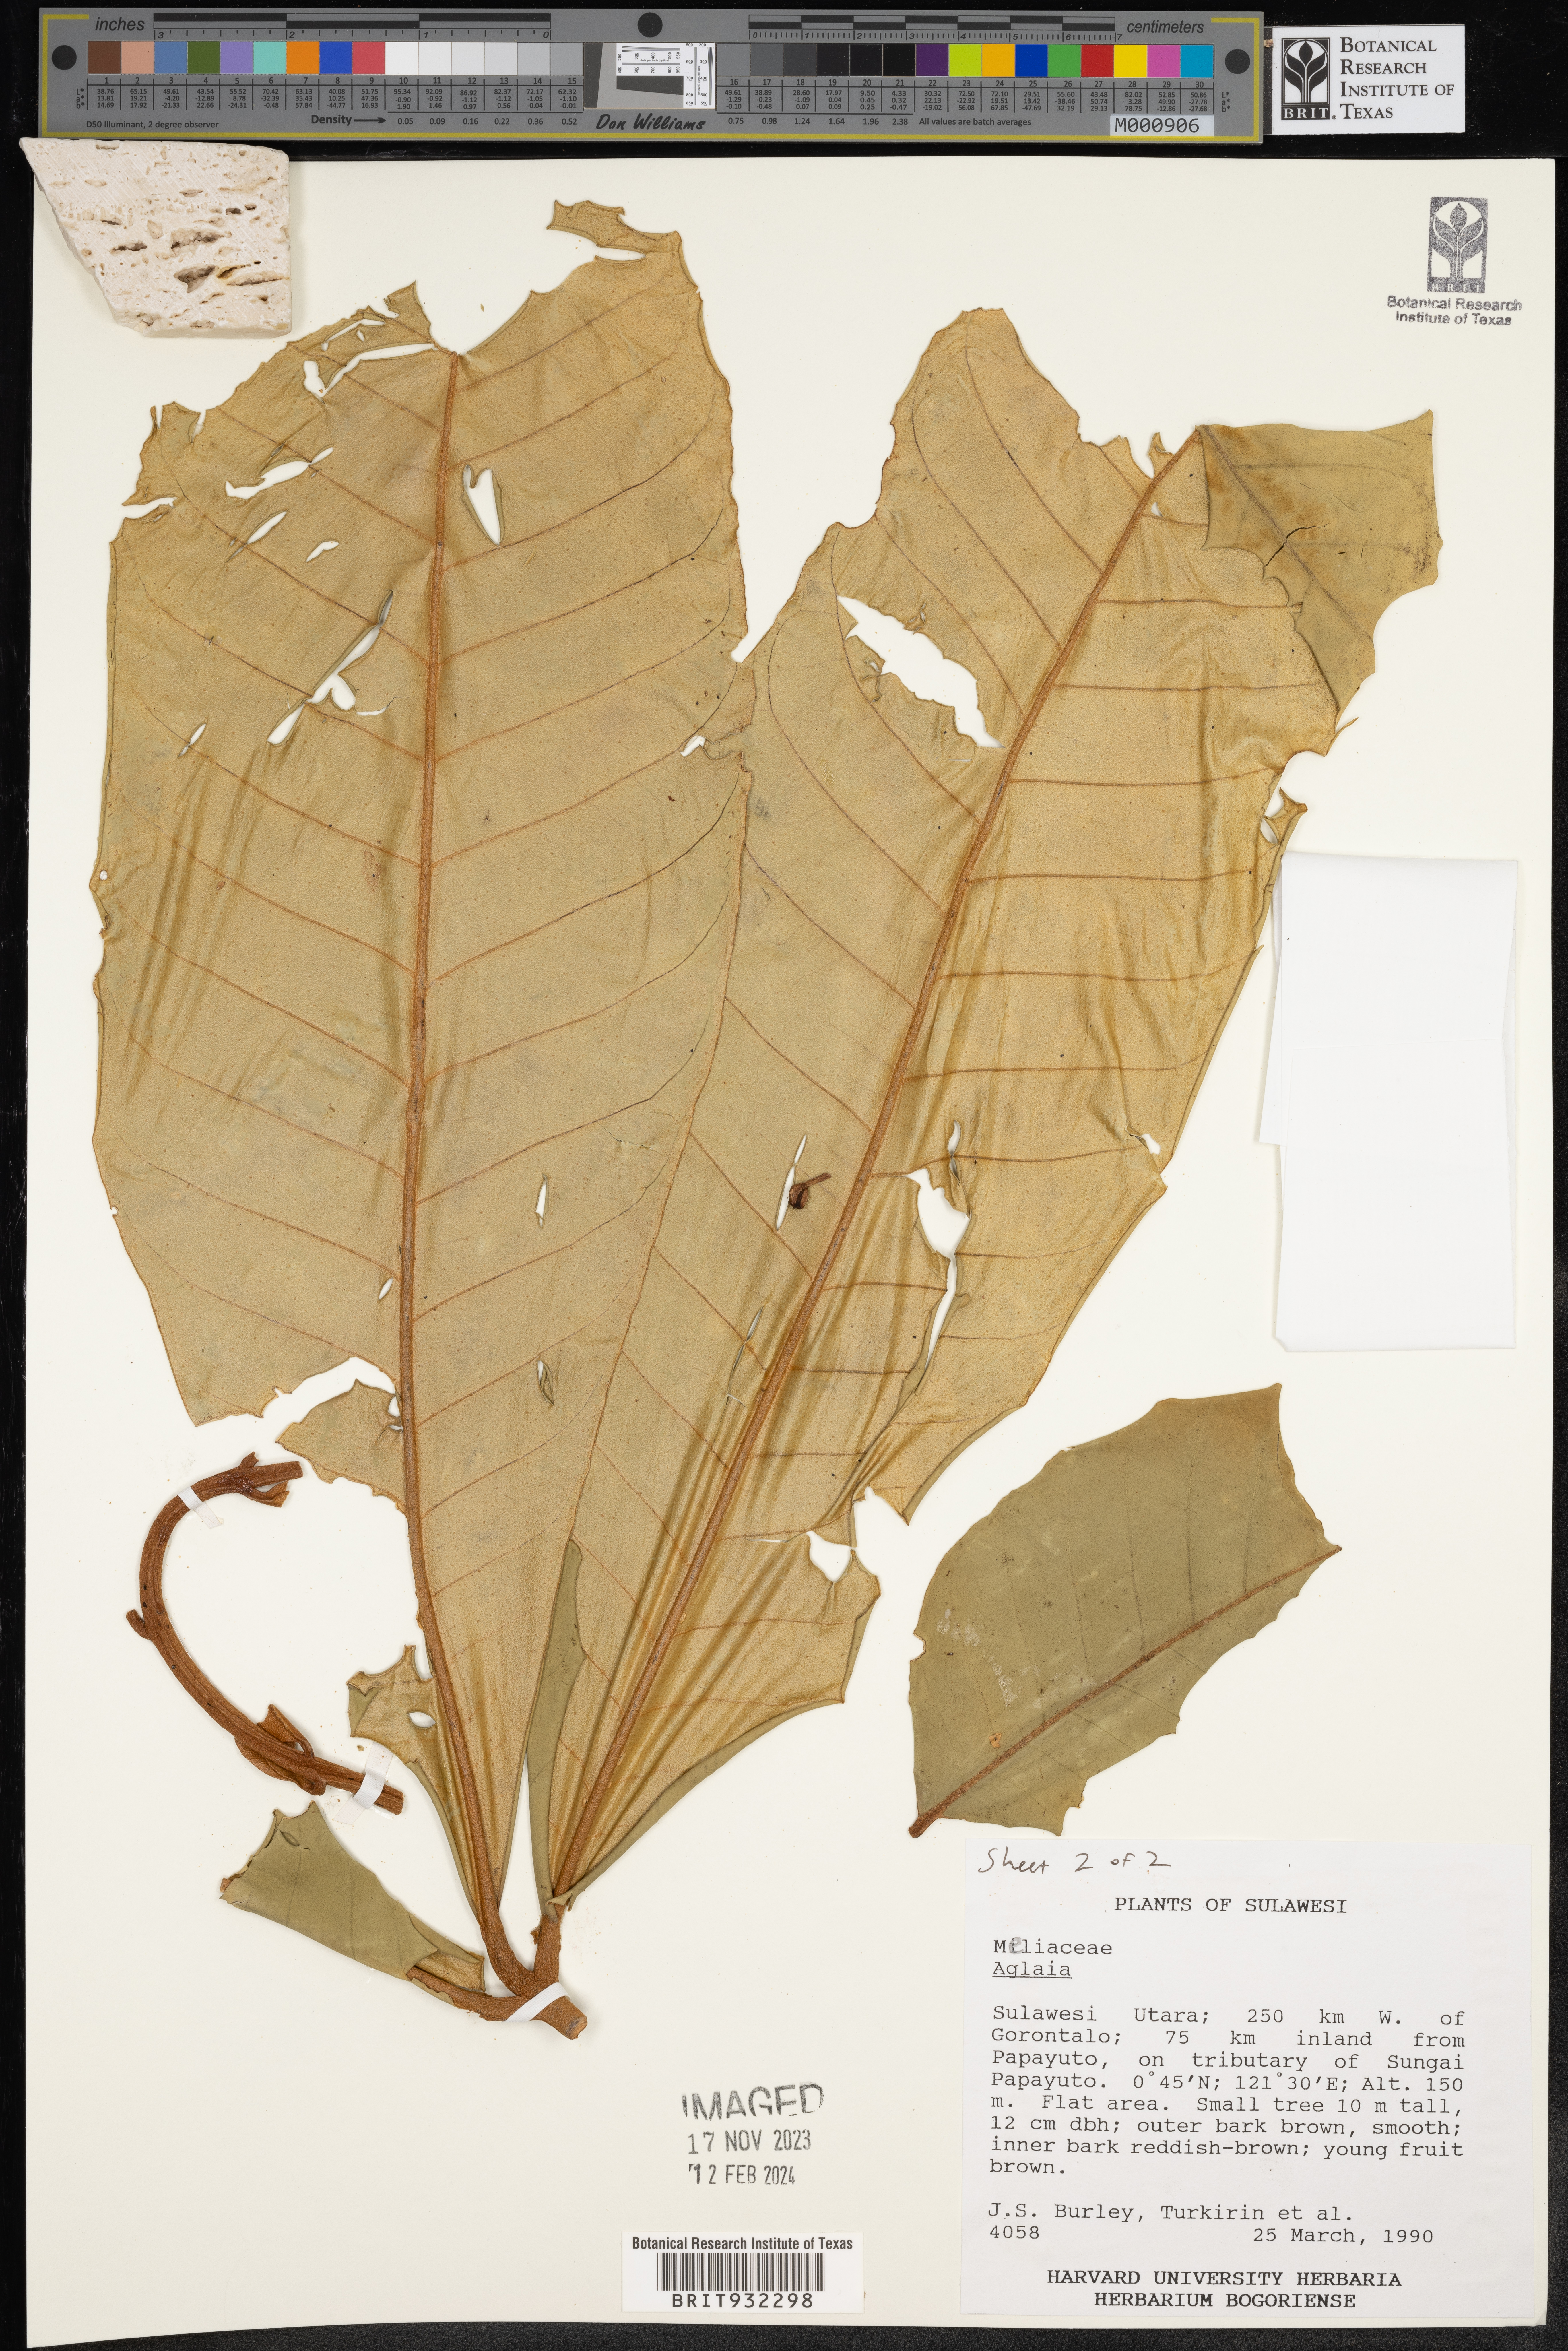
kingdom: Plantae
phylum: Tracheophyta
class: Magnoliopsida
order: Sapindales
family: Meliaceae
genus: Aglaia
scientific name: Aglaia
